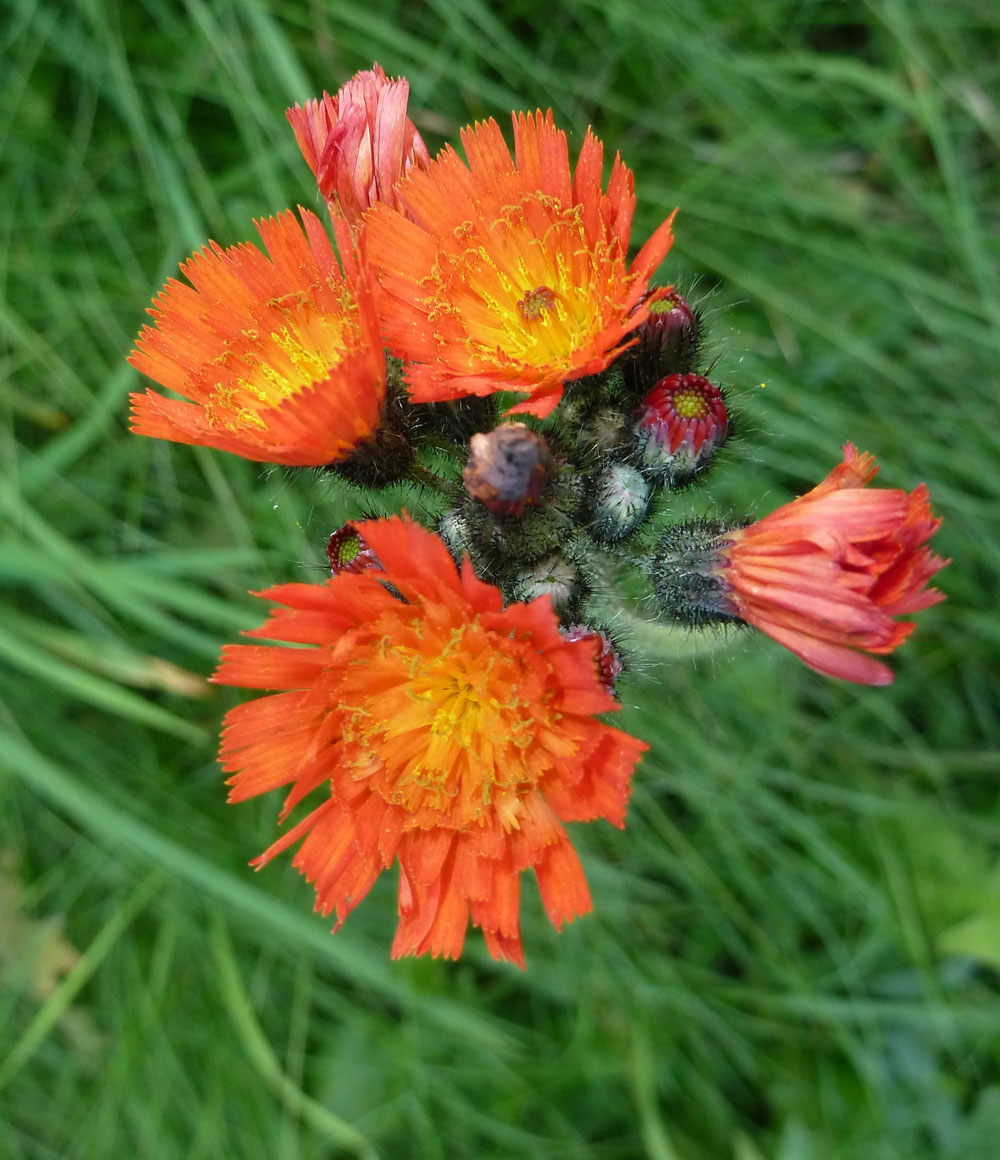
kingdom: Plantae
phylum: Tracheophyta
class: Magnoliopsida
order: Asterales
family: Asteraceae
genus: Pilosella
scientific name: Pilosella aurantiaca
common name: Fox-and-cubs
